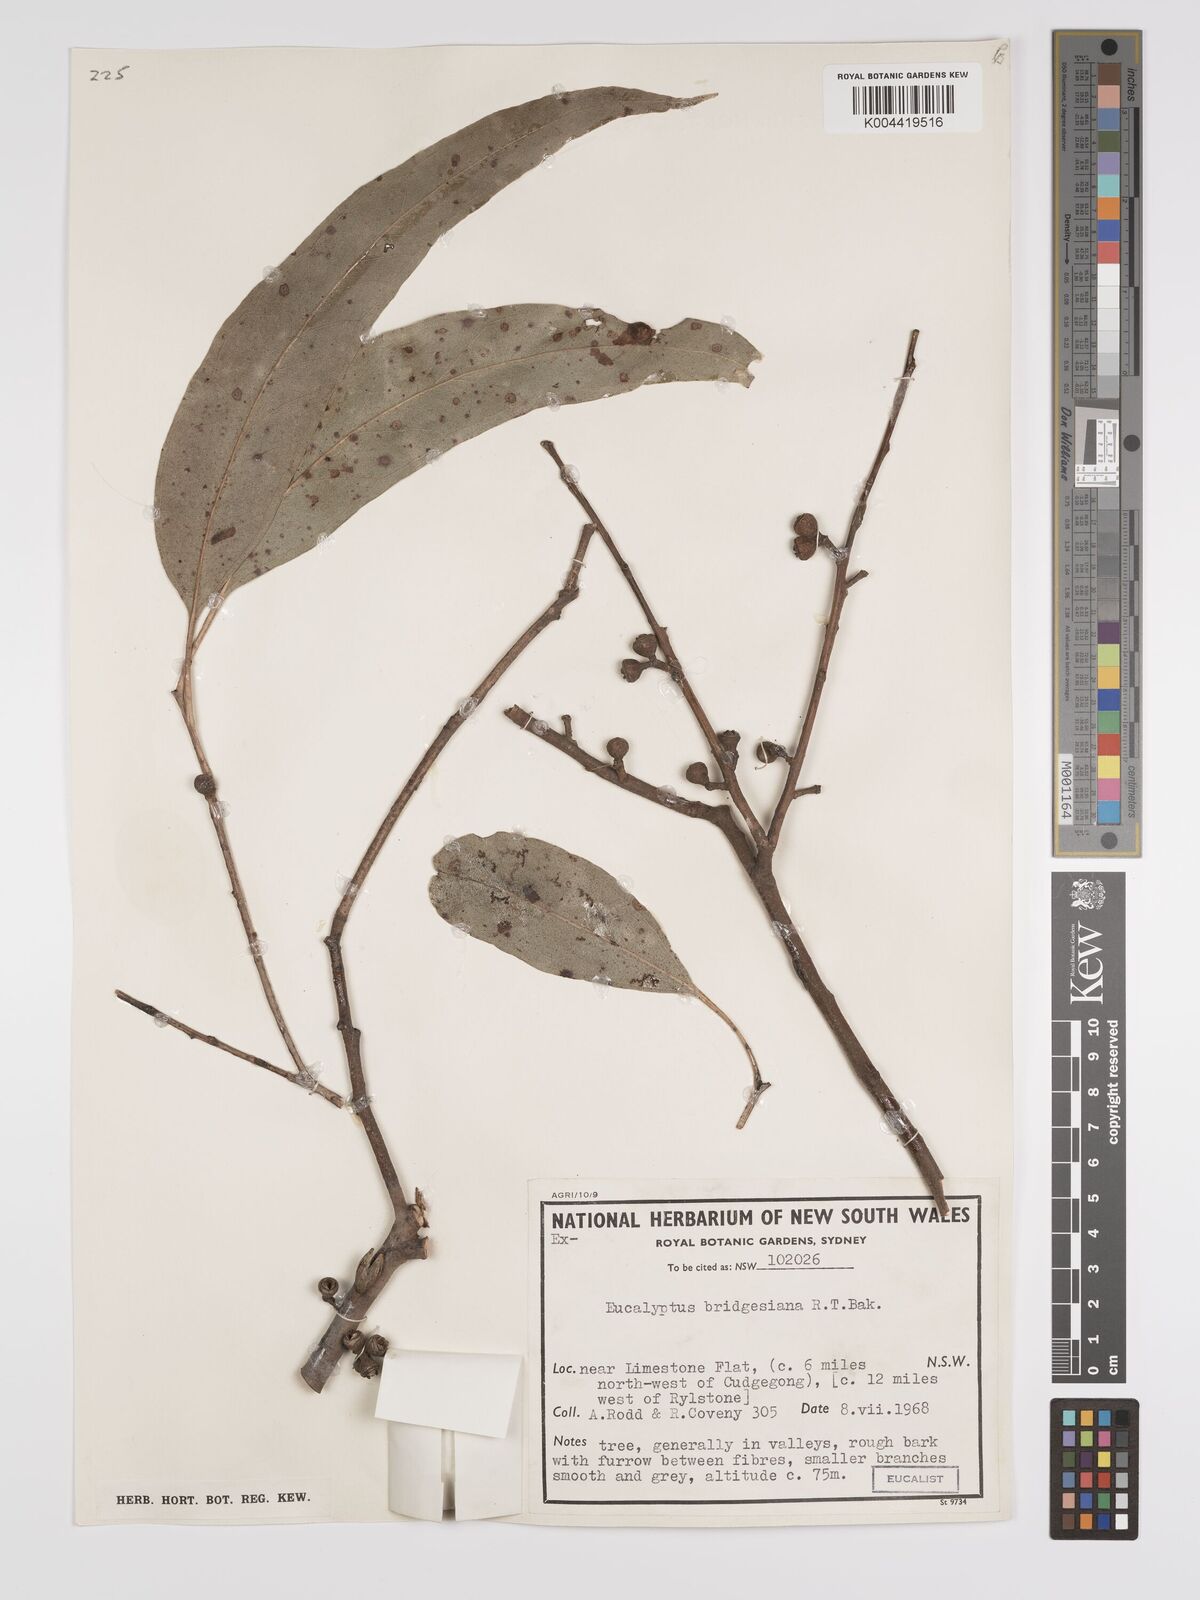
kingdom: Plantae
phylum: Tracheophyta
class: Magnoliopsida
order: Myrtales
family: Myrtaceae
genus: Eucalyptus
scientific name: Eucalyptus ovata
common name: Black-gum
